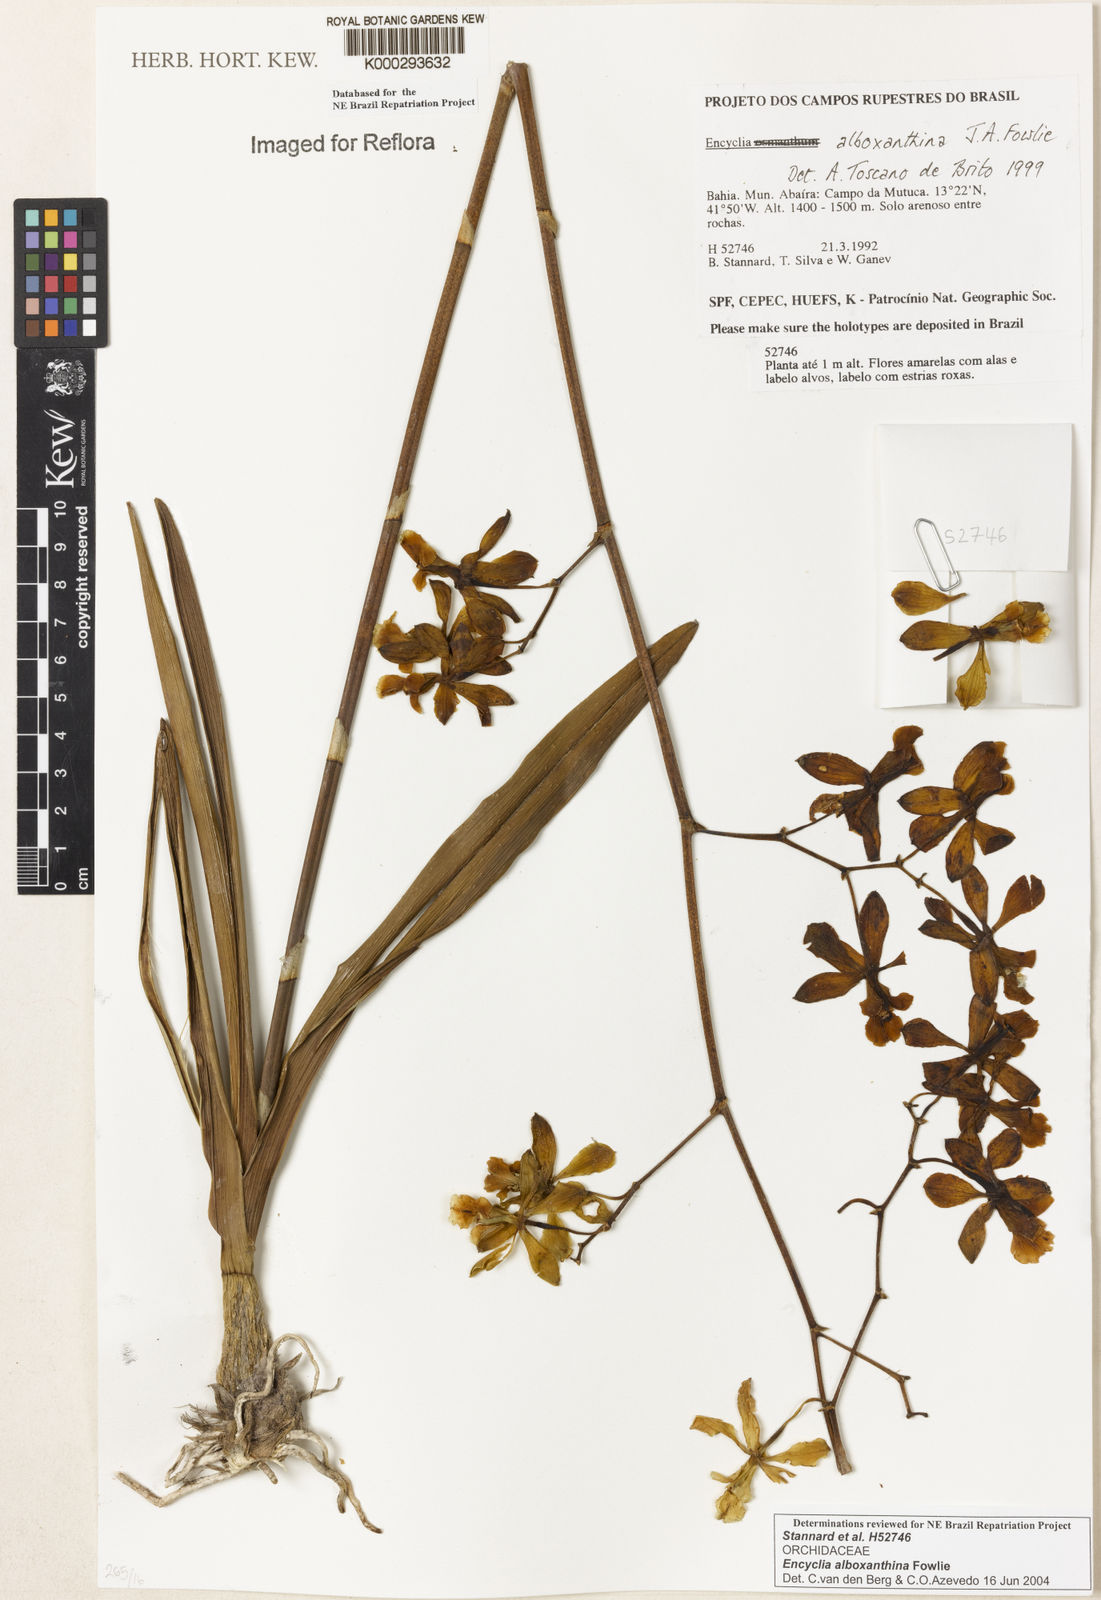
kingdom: Plantae
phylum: Tracheophyta
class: Liliopsida
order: Asparagales
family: Orchidaceae
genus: Encyclia
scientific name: Encyclia alboxanthina
